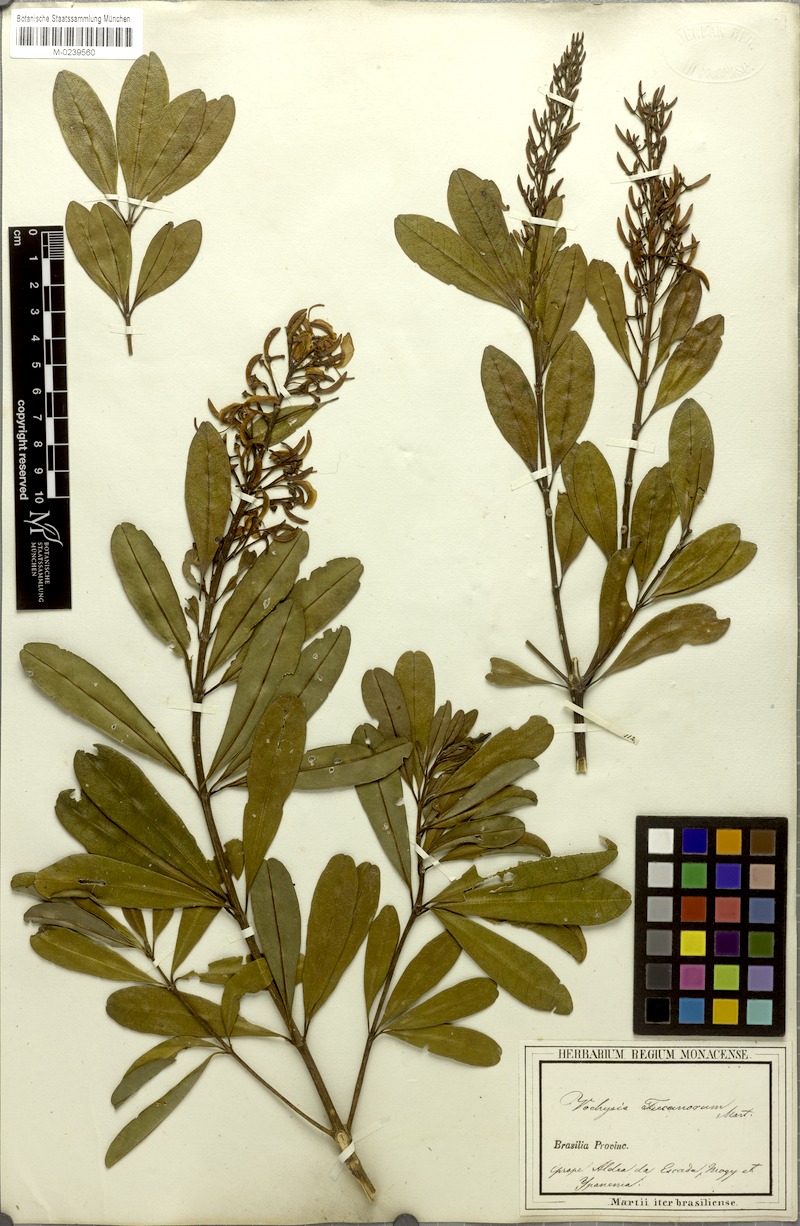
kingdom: Plantae
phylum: Tracheophyta
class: Magnoliopsida
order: Myrtales
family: Vochysiaceae
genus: Vochysia
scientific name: Vochysia tucanorum
